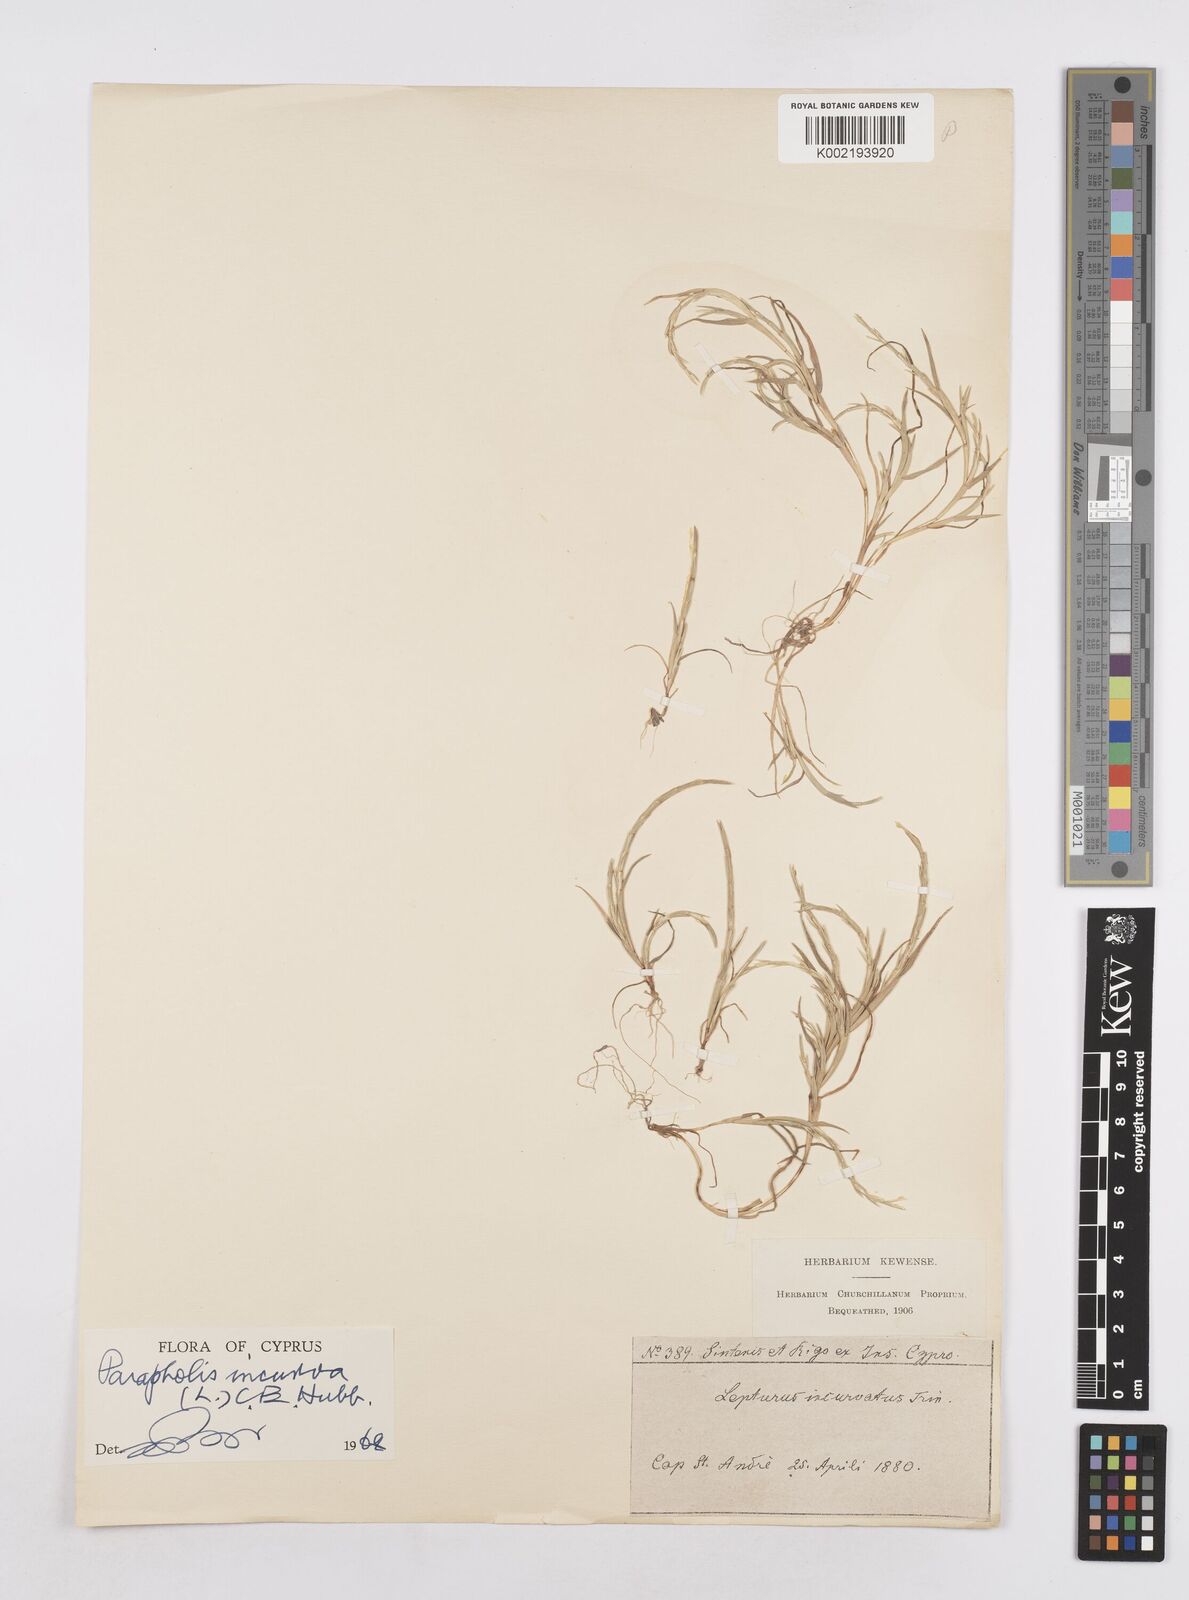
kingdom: Plantae
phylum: Tracheophyta
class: Liliopsida
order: Poales
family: Poaceae
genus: Parapholis
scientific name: Parapholis incurva
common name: Curved sicklegrass
